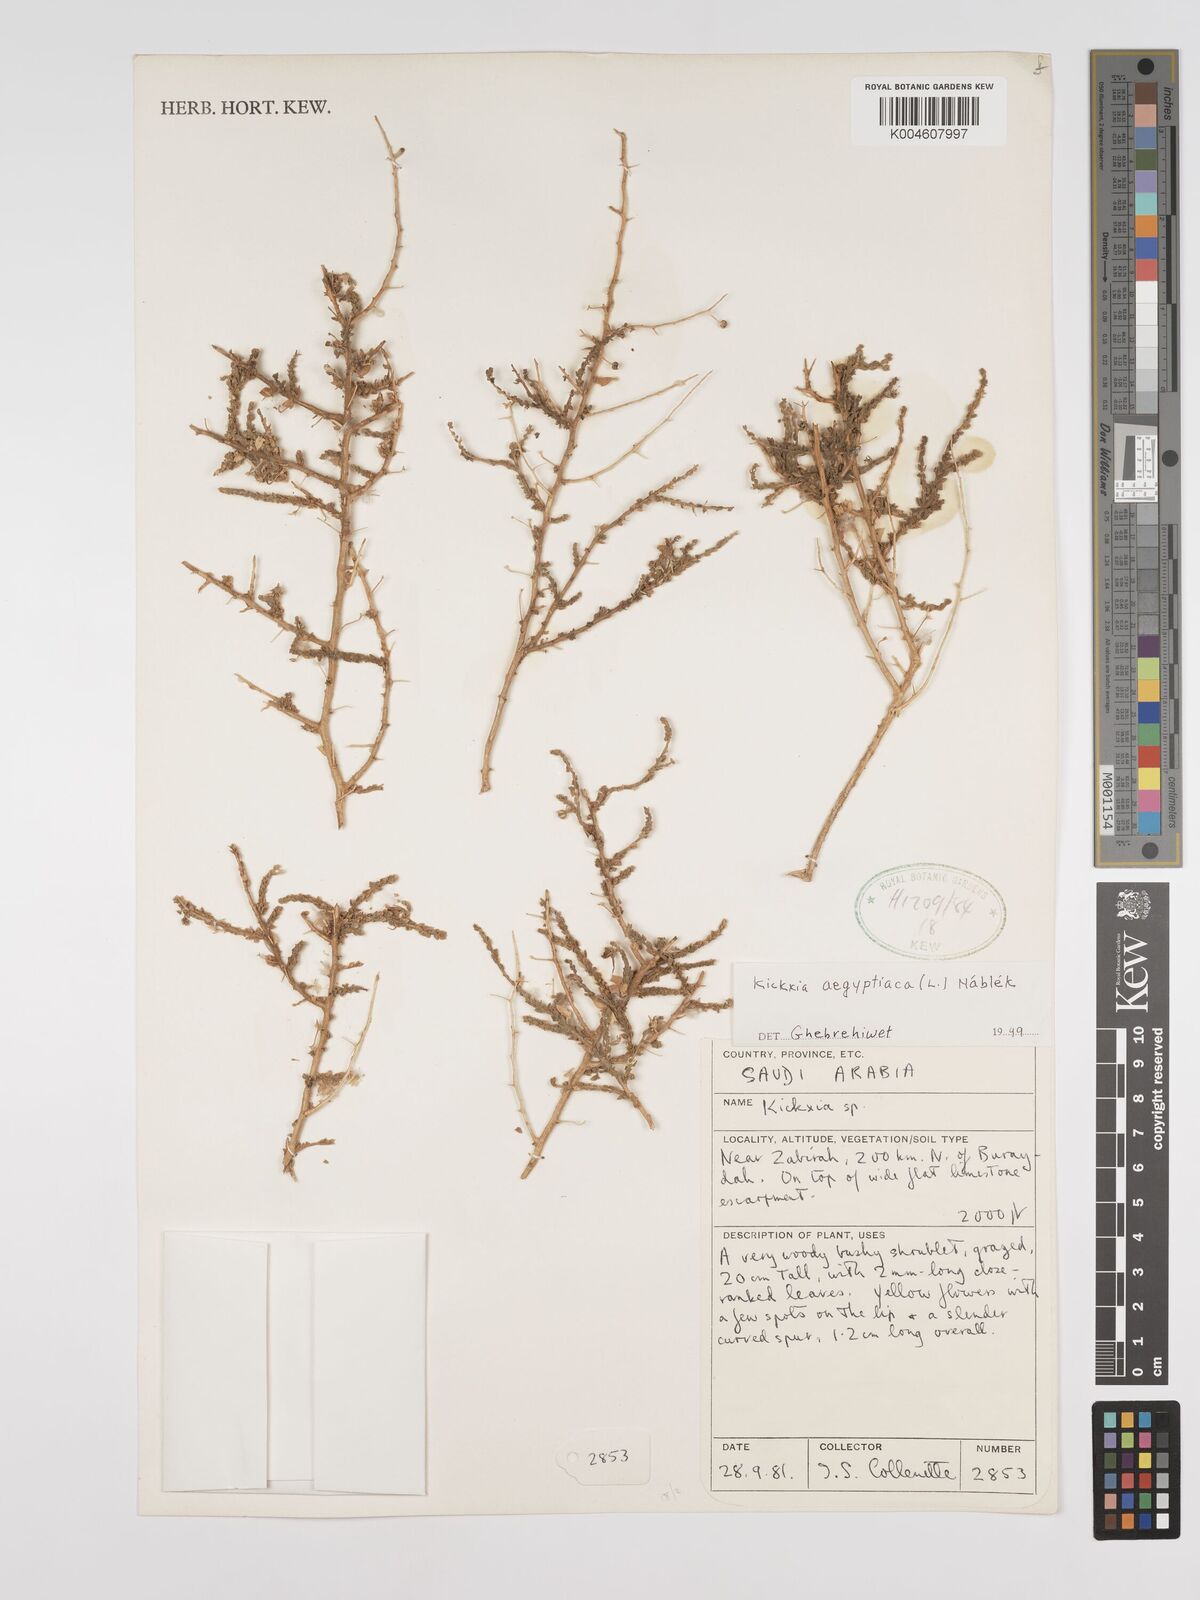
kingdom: Plantae
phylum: Tracheophyta
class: Magnoliopsida
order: Lamiales
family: Plantaginaceae
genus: Kickxia
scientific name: Kickxia elatine
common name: Sharp-leaved fluellen
